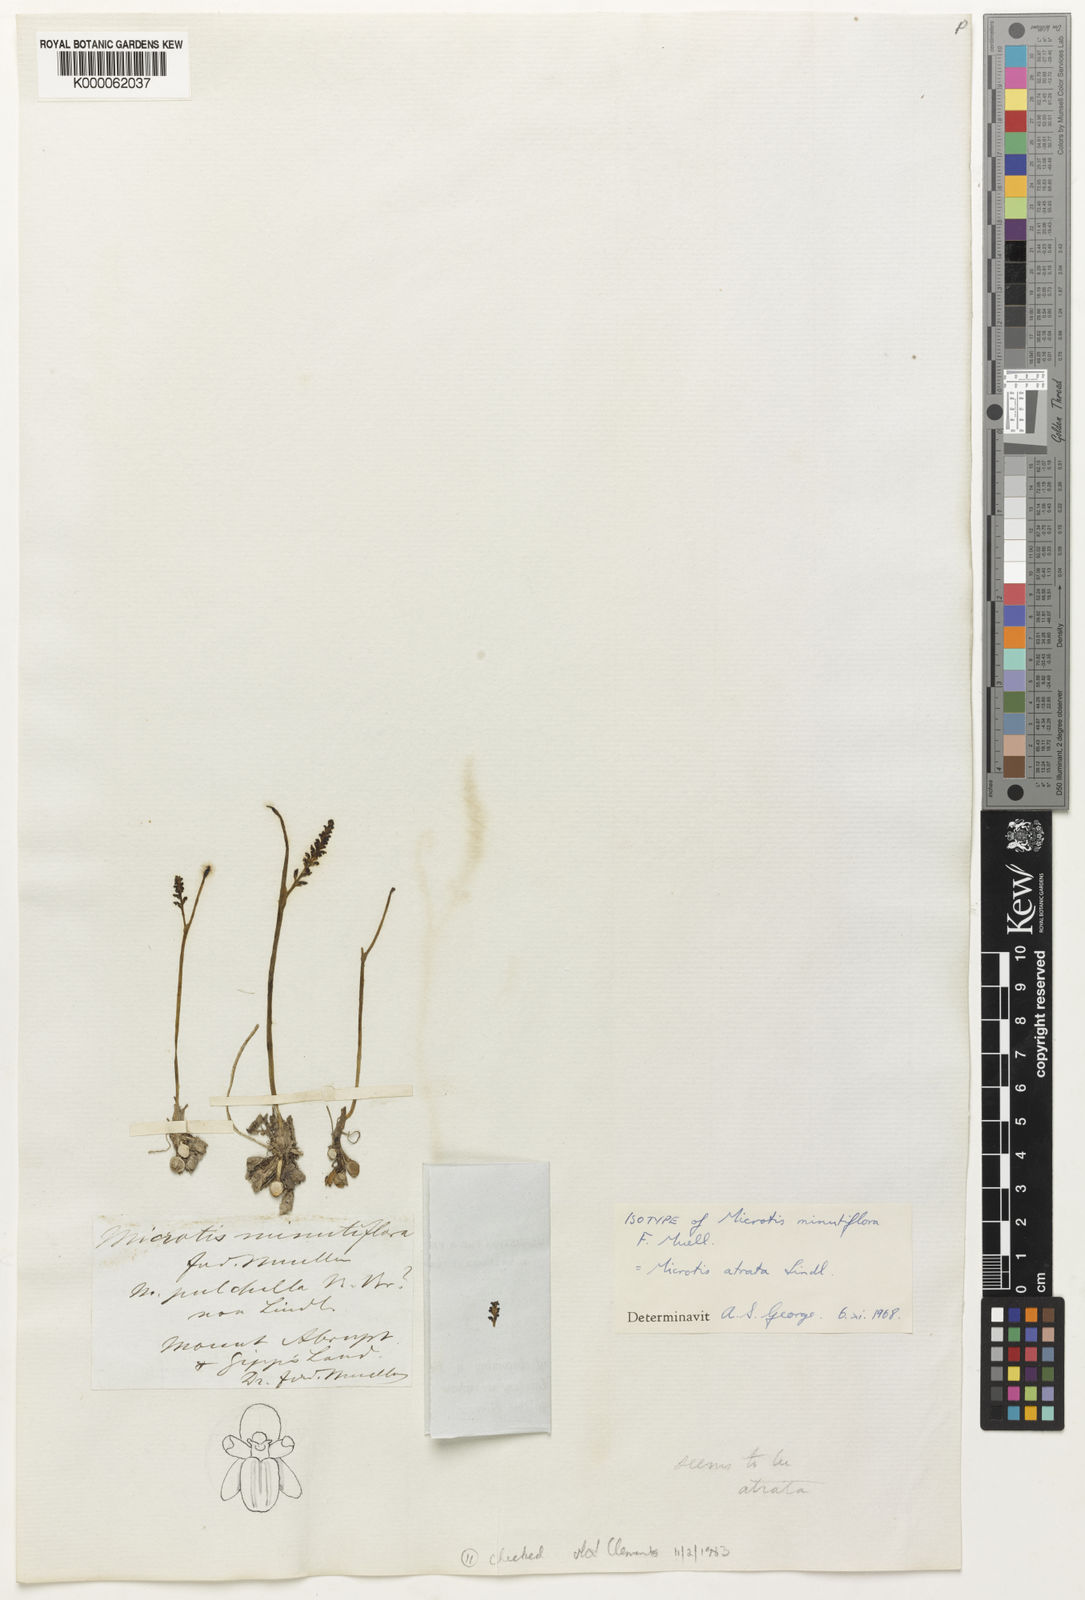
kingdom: Plantae
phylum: Tracheophyta
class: Liliopsida
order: Asparagales
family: Orchidaceae
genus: Microtis
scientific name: Microtis atrata
